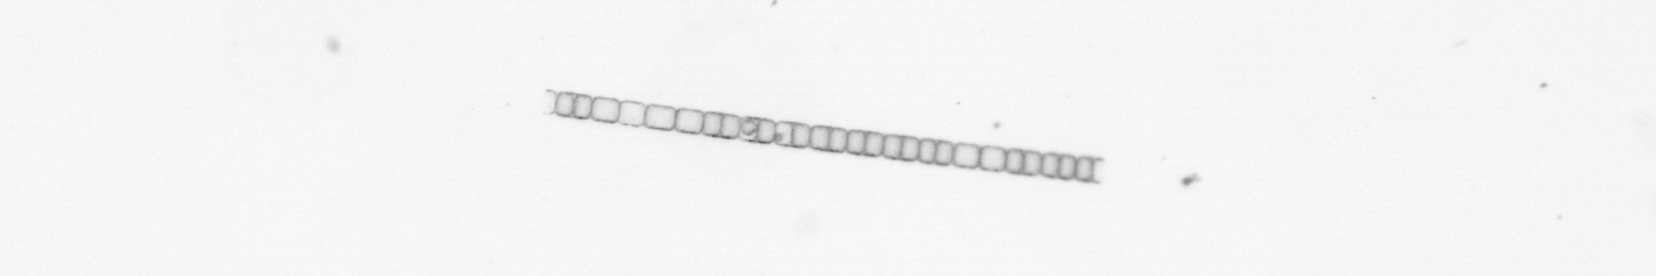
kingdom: Chromista
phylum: Ochrophyta
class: Bacillariophyceae
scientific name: Bacillariophyceae
